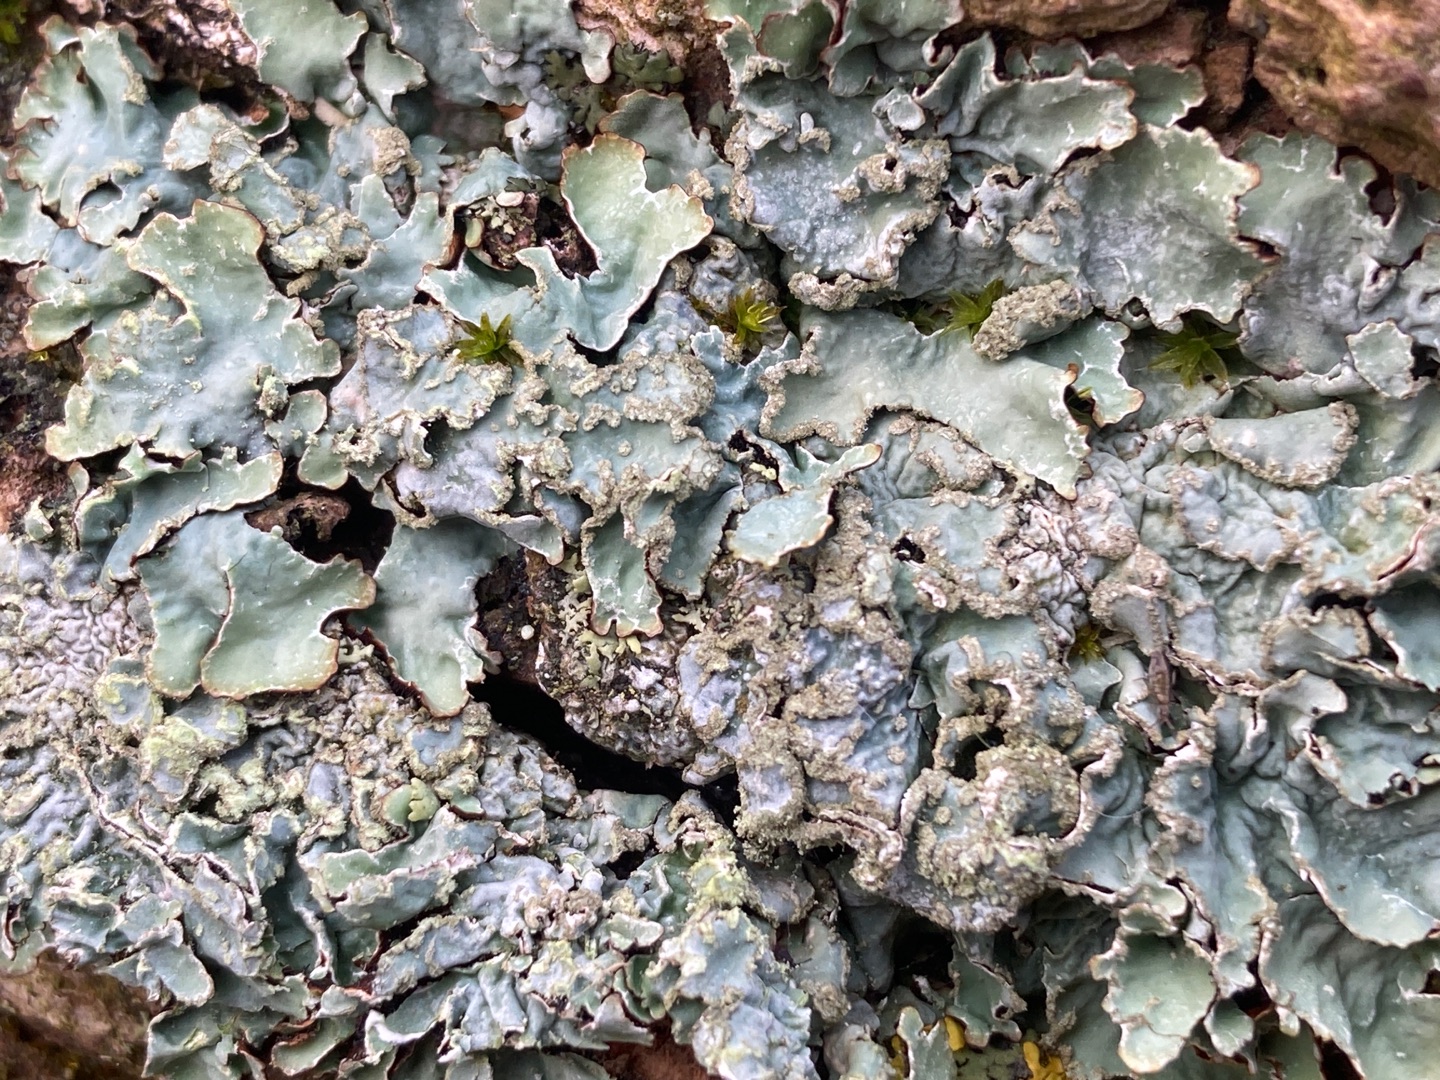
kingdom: Fungi
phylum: Ascomycota
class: Lecanoromycetes
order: Lecanorales
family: Parmeliaceae
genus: Parmelia
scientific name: Parmelia sulcata
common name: Rynket skållav
